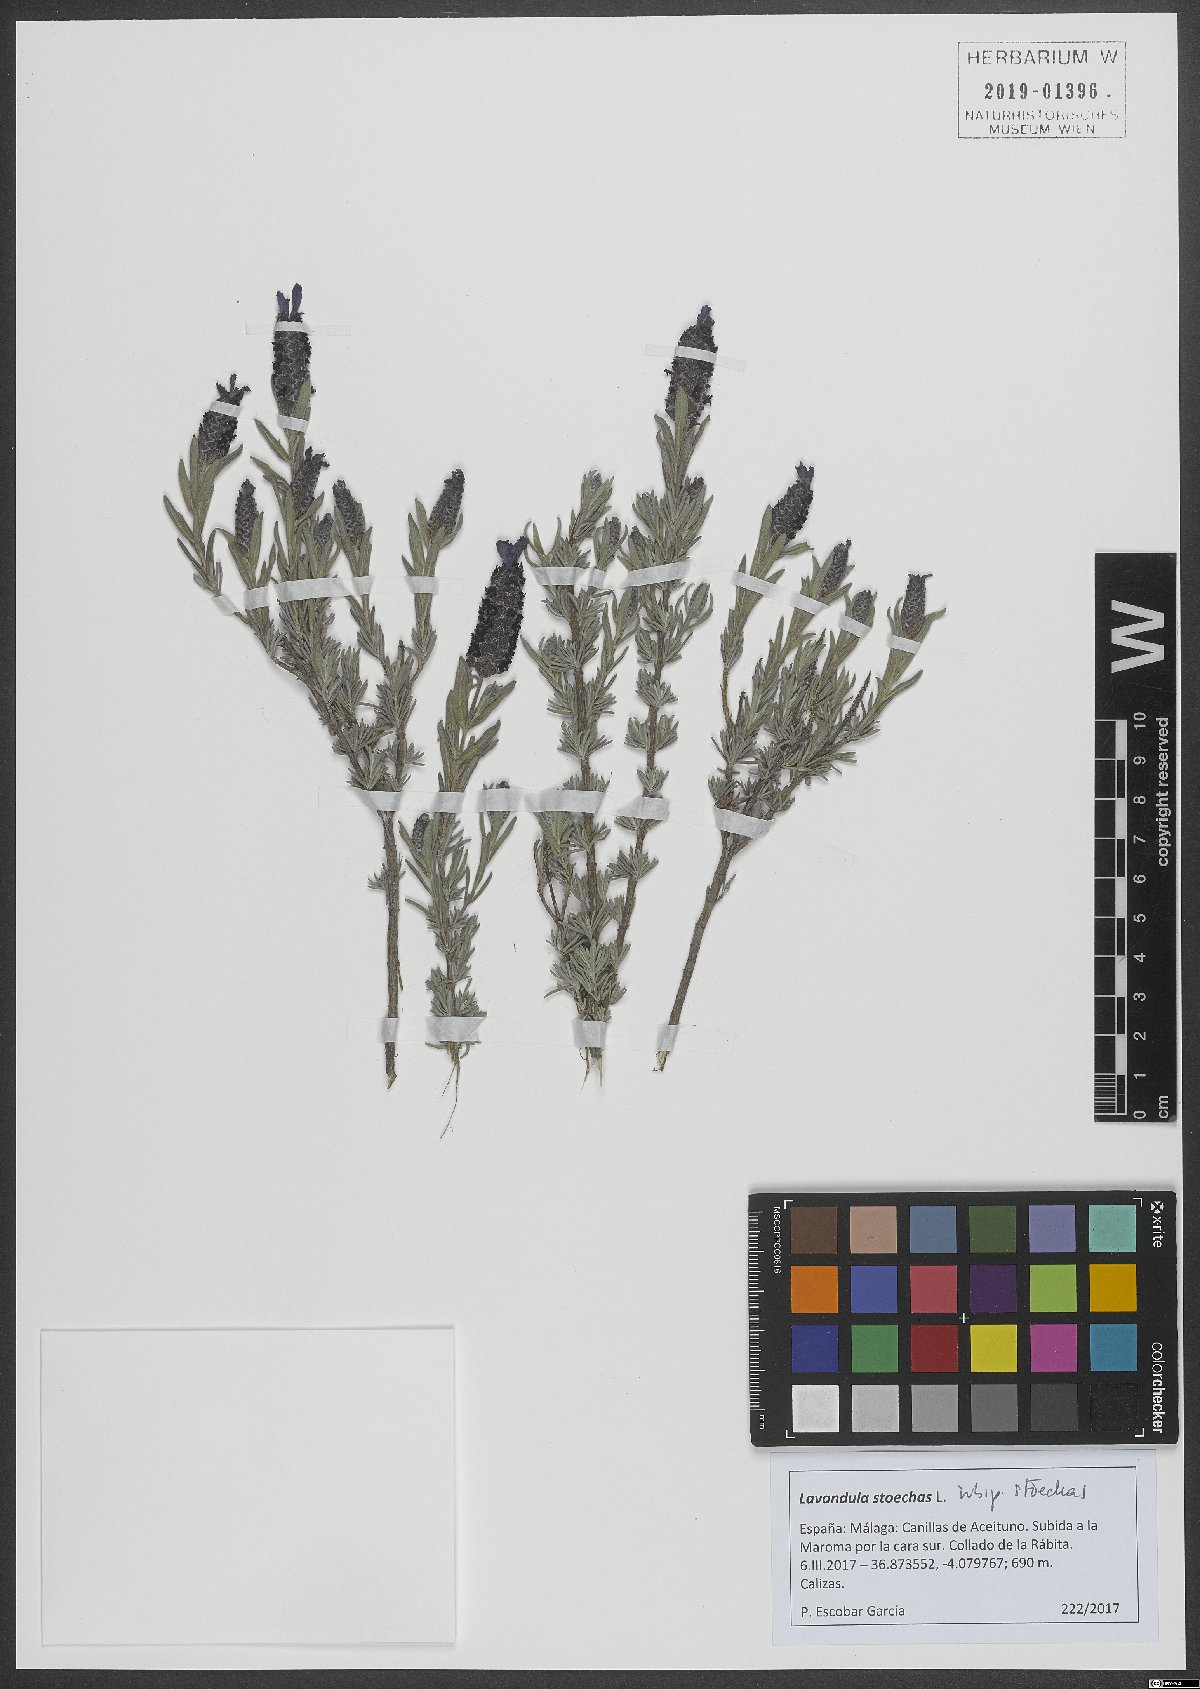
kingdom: Plantae
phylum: Tracheophyta
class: Magnoliopsida
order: Lamiales
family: Lamiaceae
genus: Lavandula
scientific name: Lavandula stoechas
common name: French lavender
